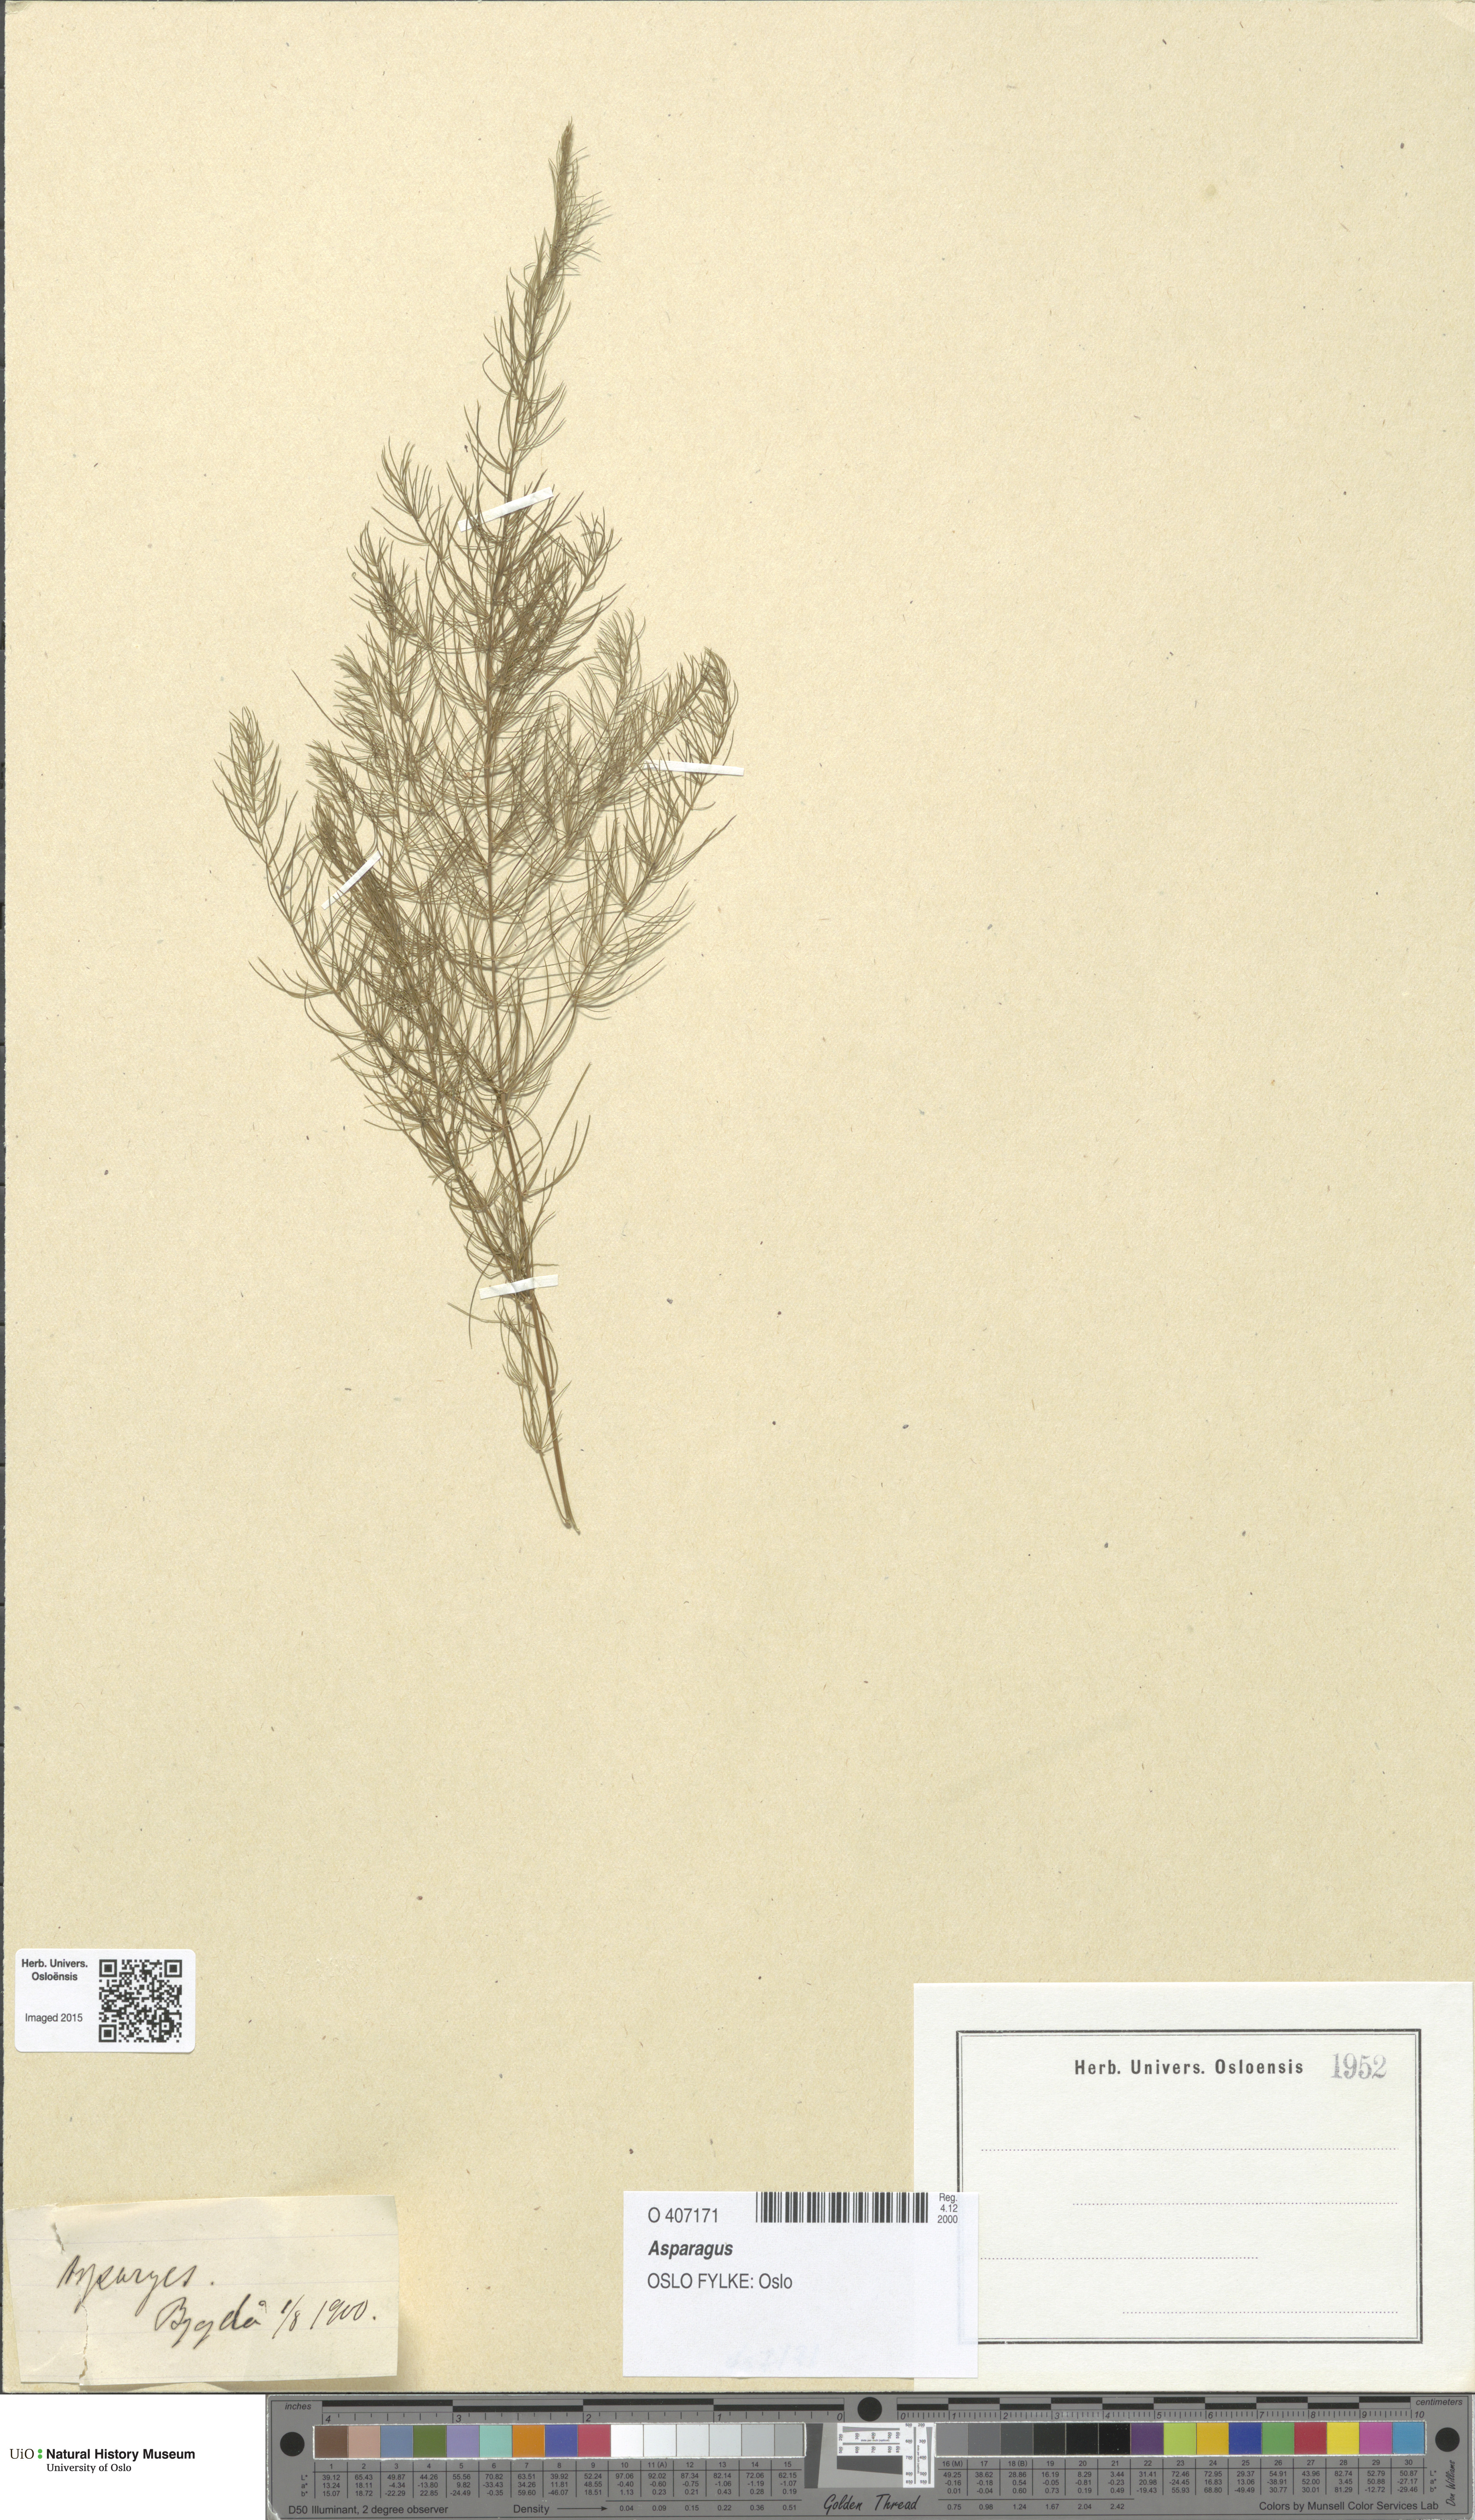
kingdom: Plantae
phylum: Tracheophyta
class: Liliopsida
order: Asparagales
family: Asparagaceae
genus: Asparagus
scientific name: Asparagus
